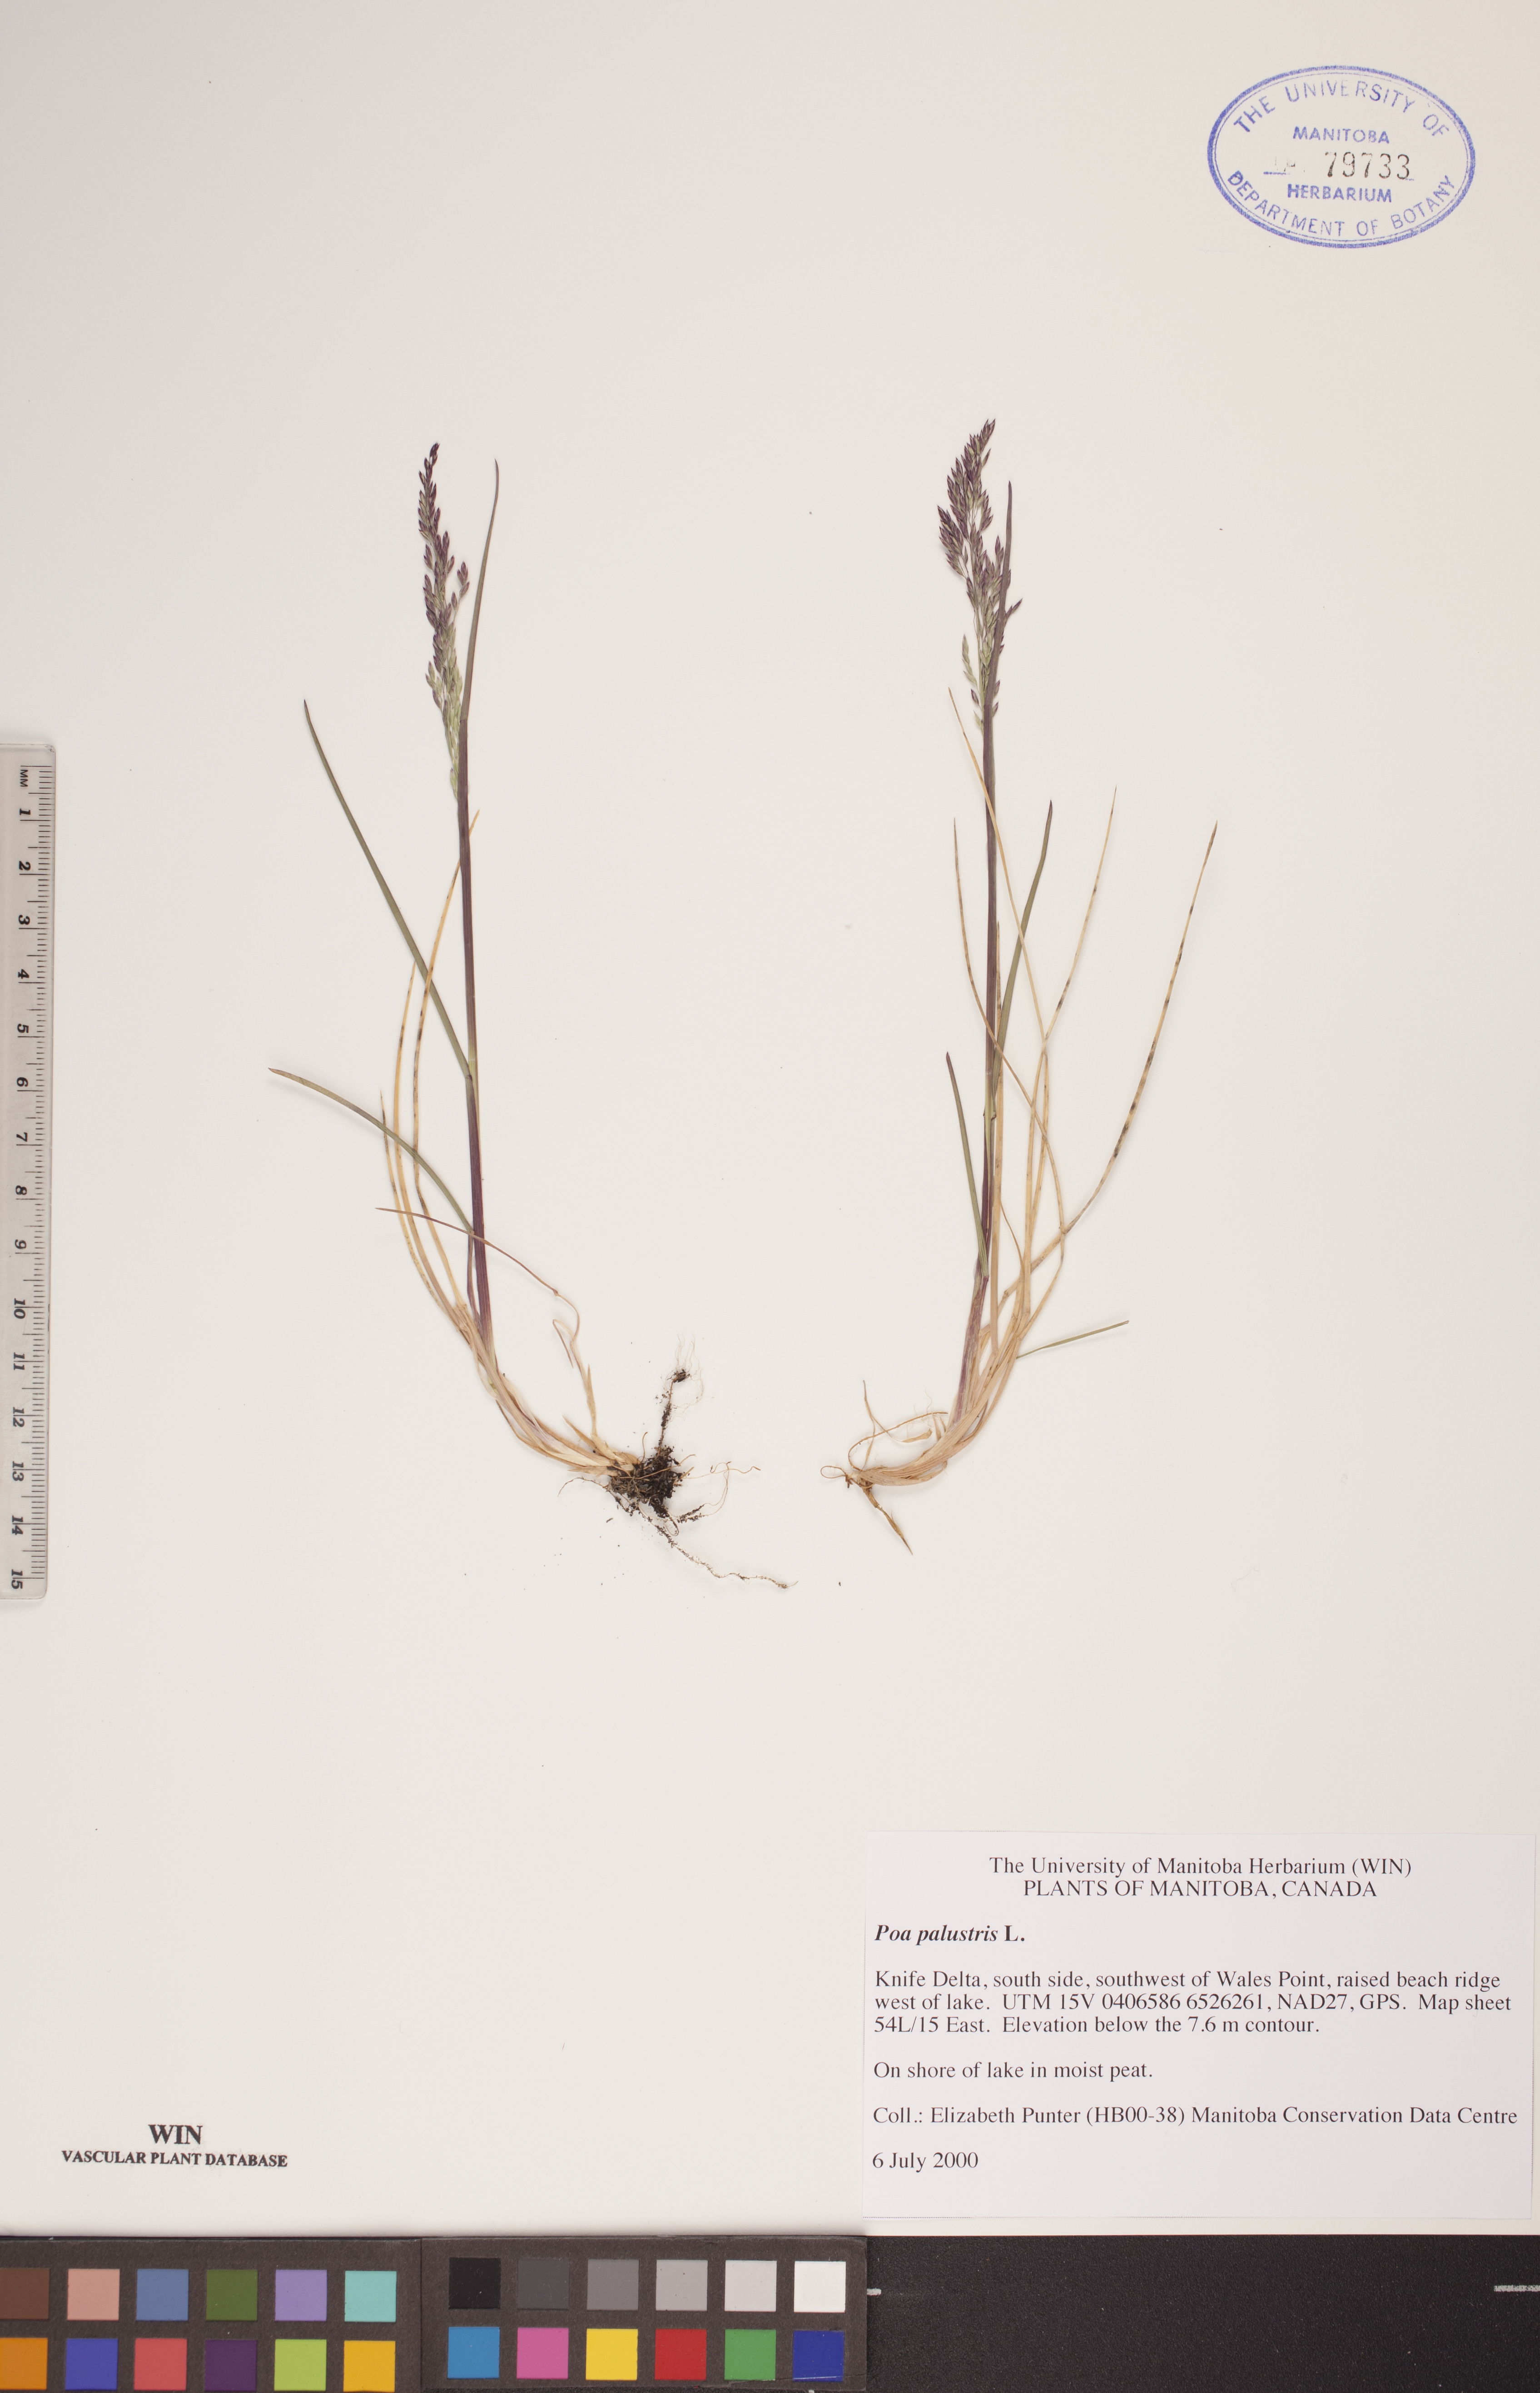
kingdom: Plantae
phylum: Tracheophyta
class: Liliopsida
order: Poales
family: Poaceae
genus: Poa
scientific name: Poa palustris
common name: Swamp meadow-grass
